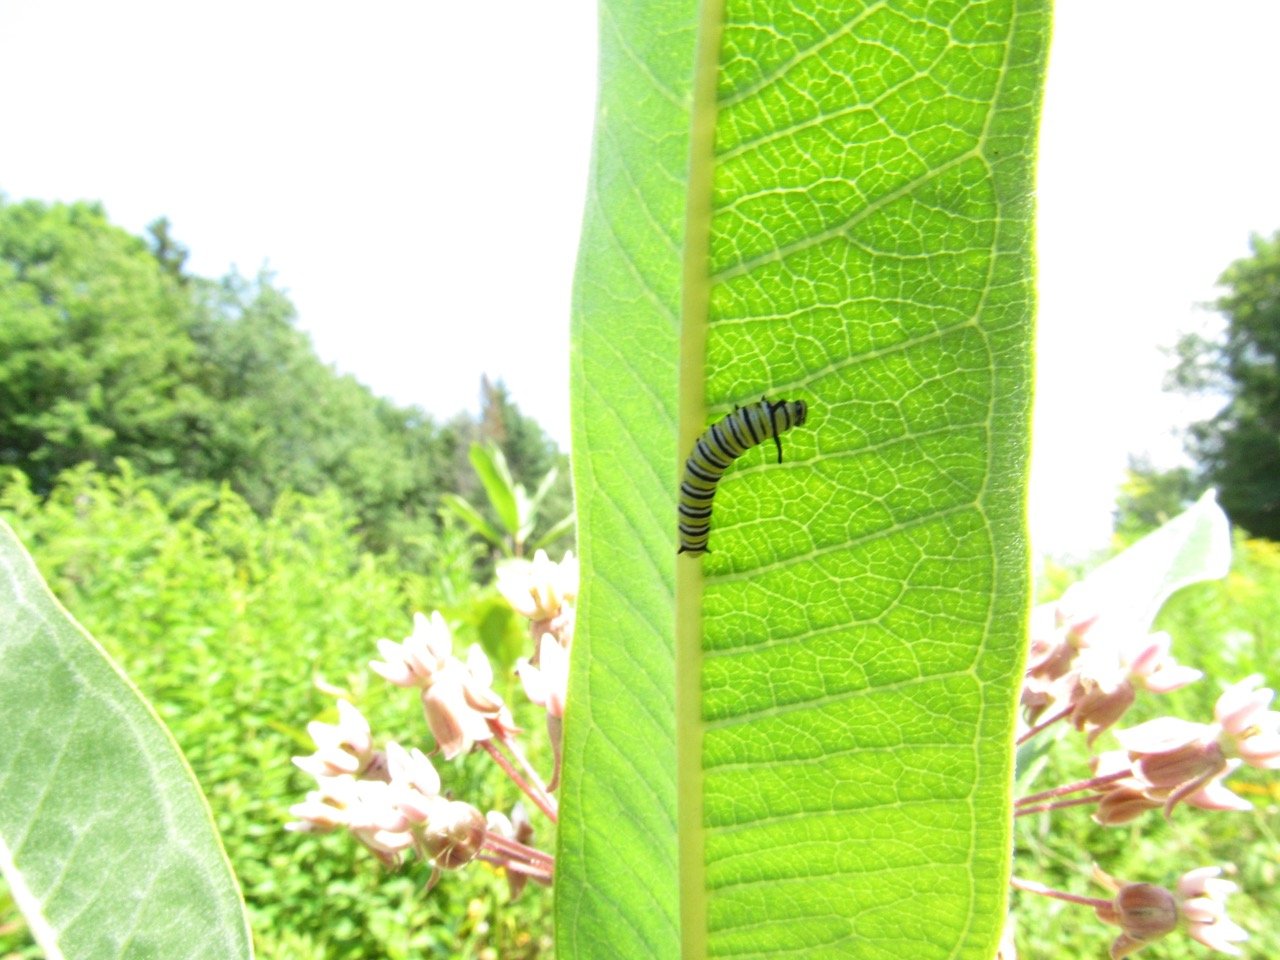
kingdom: Animalia
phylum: Arthropoda
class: Insecta
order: Lepidoptera
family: Nymphalidae
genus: Danaus
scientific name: Danaus plexippus
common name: Monarch
